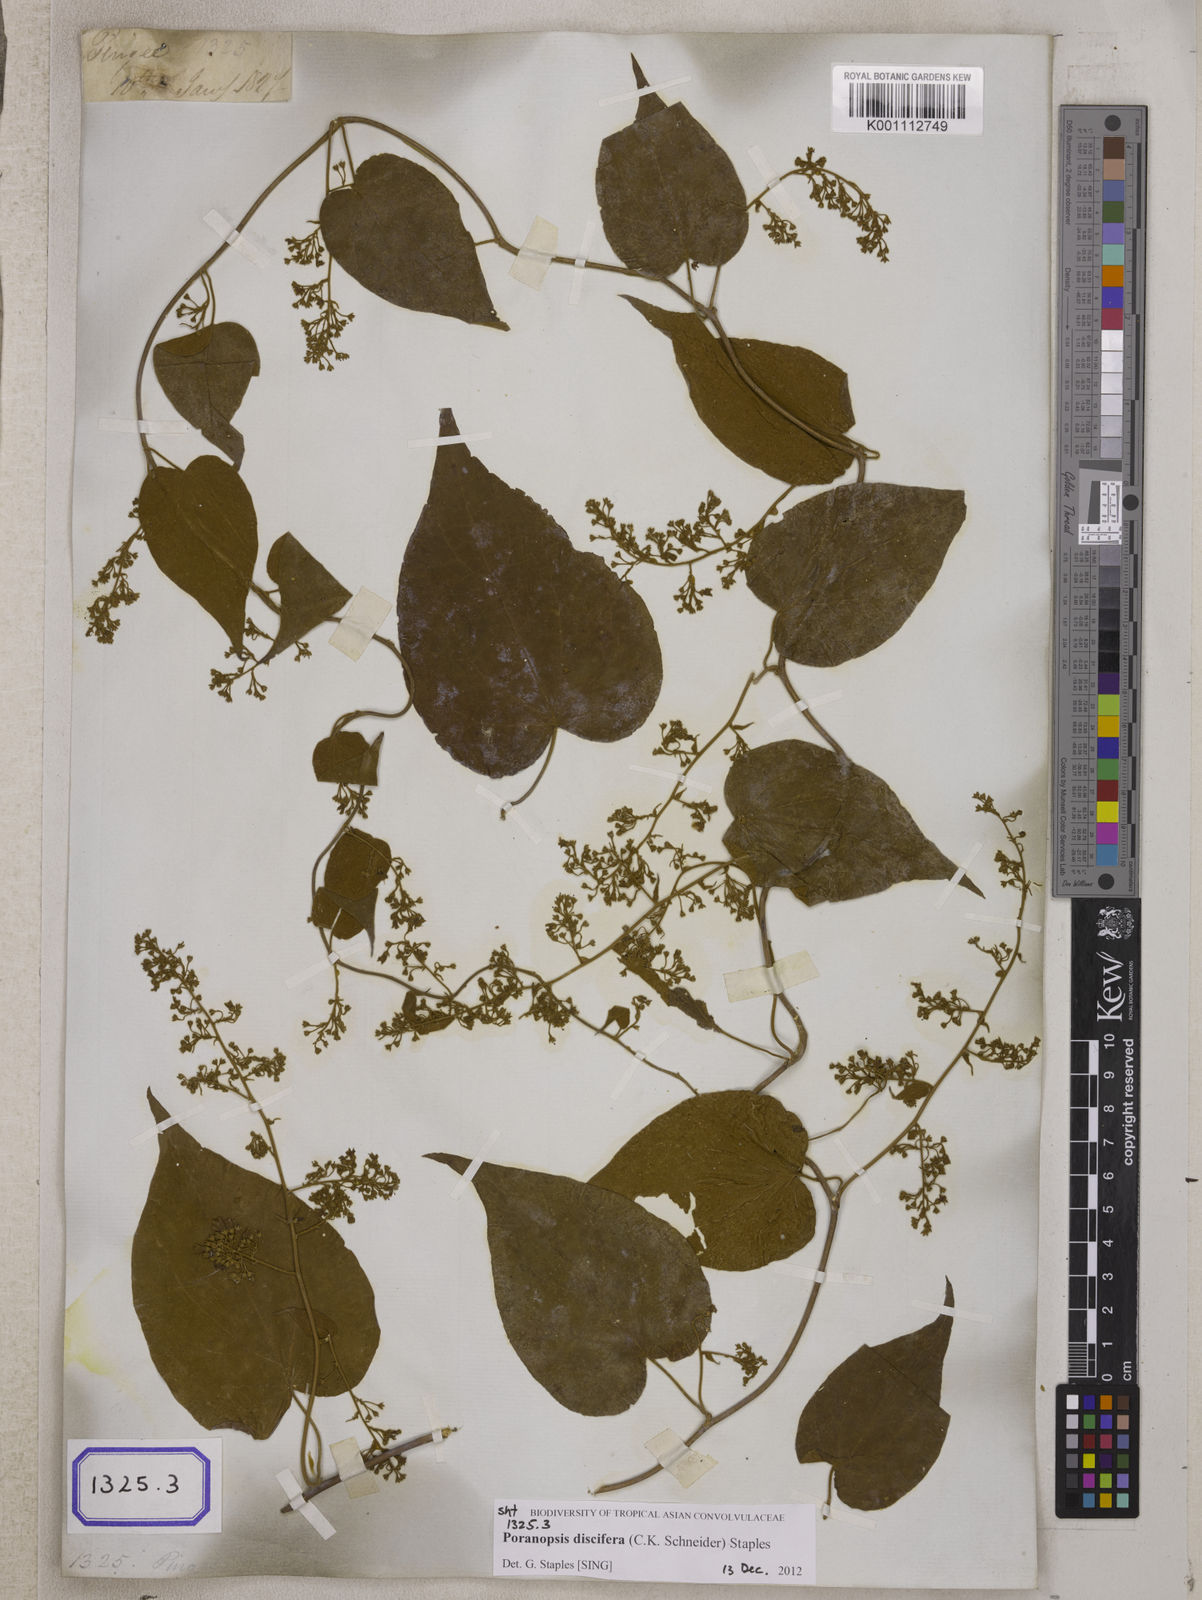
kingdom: Plantae
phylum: Tracheophyta
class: Magnoliopsida
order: Solanales
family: Convolvulaceae
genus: Poranopsis
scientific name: Poranopsis paniculata
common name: Bridal bouquet
